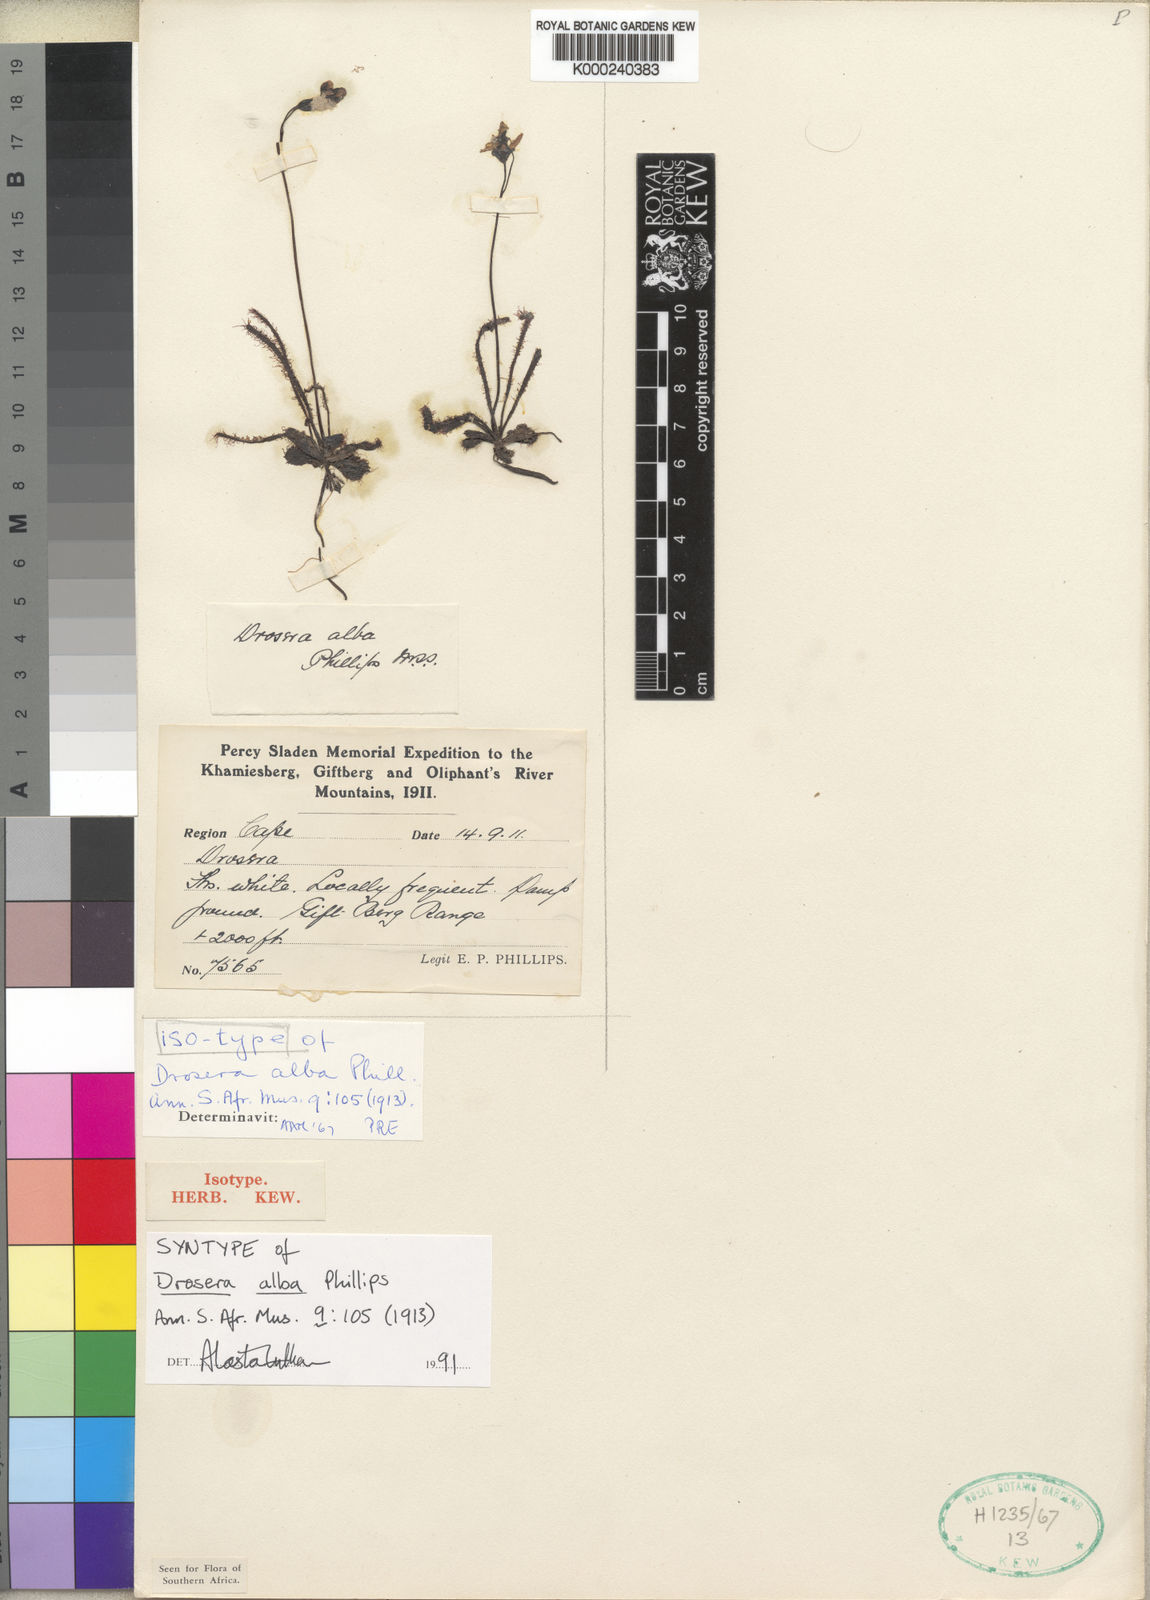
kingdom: Plantae
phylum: Tracheophyta
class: Magnoliopsida
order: Caryophyllales
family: Droseraceae
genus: Drosera
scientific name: Drosera alba
